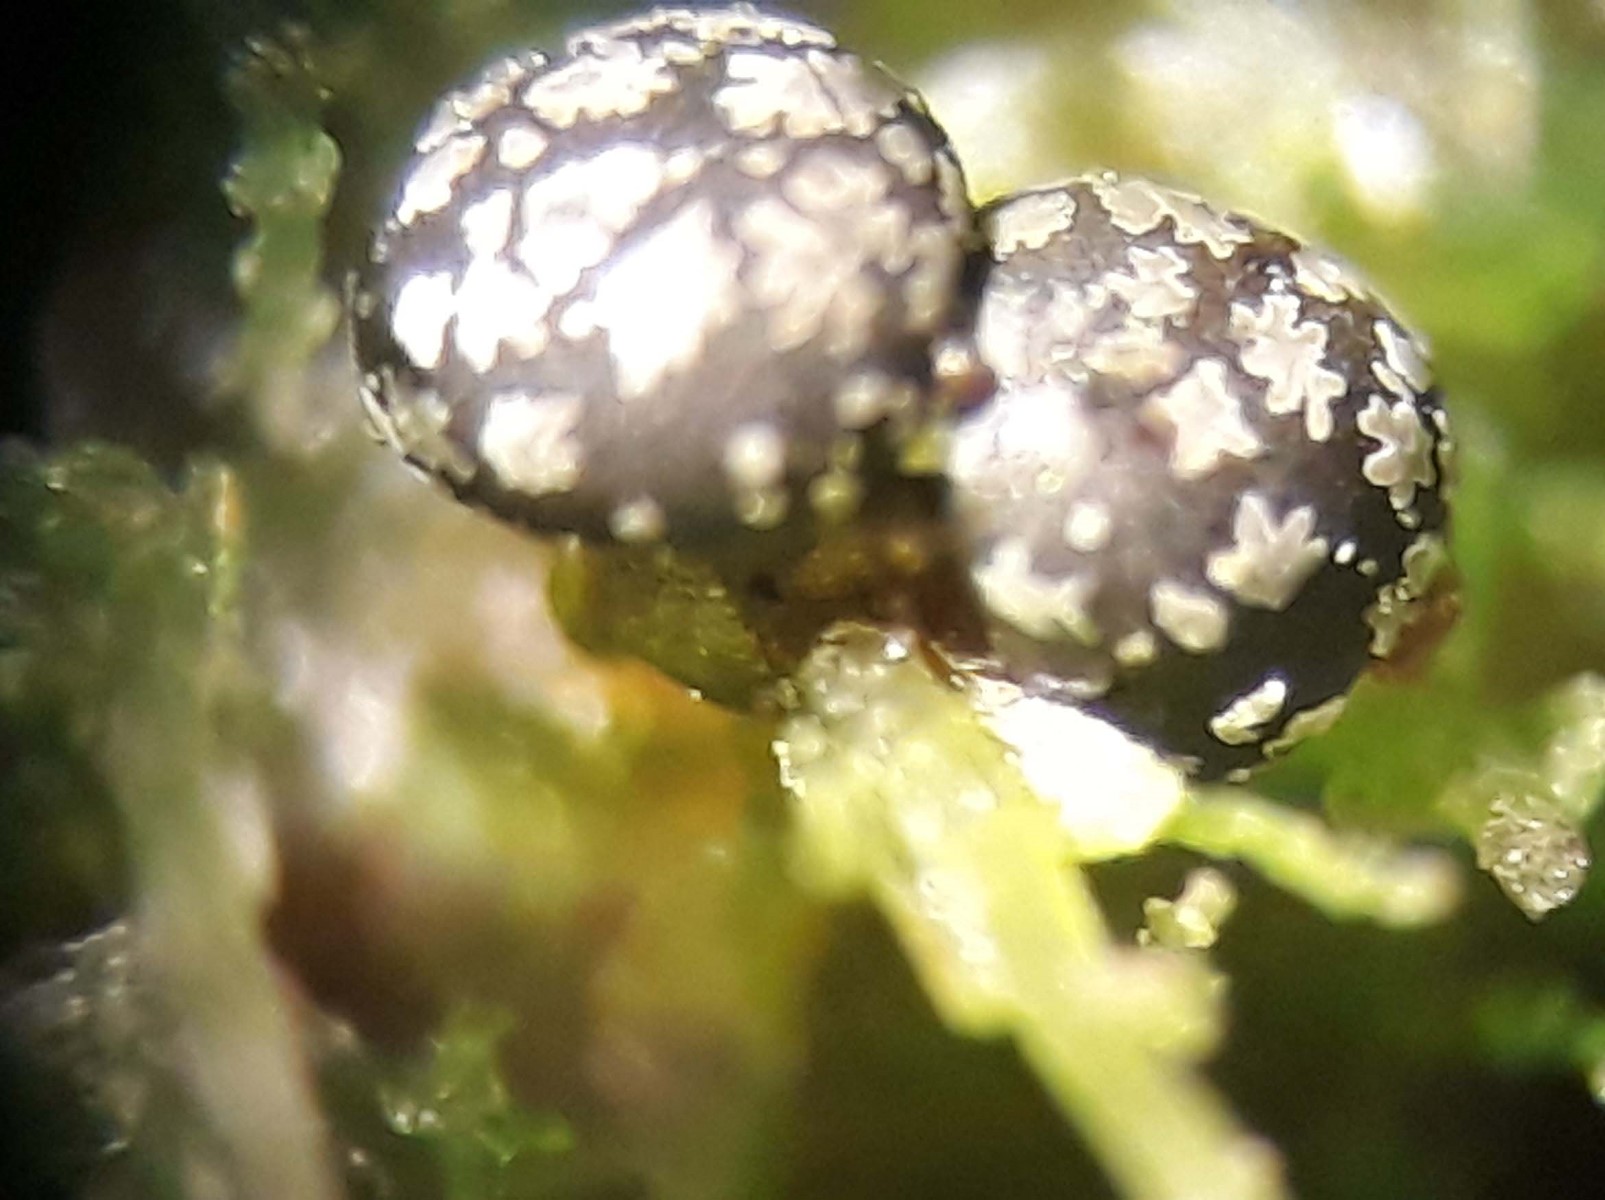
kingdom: Protozoa
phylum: Mycetozoa
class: Myxomycetes
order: Physarales
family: Didymiaceae
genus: Lepidoderma
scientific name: Lepidoderma tigrinum
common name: Lepidoderma crassipes
